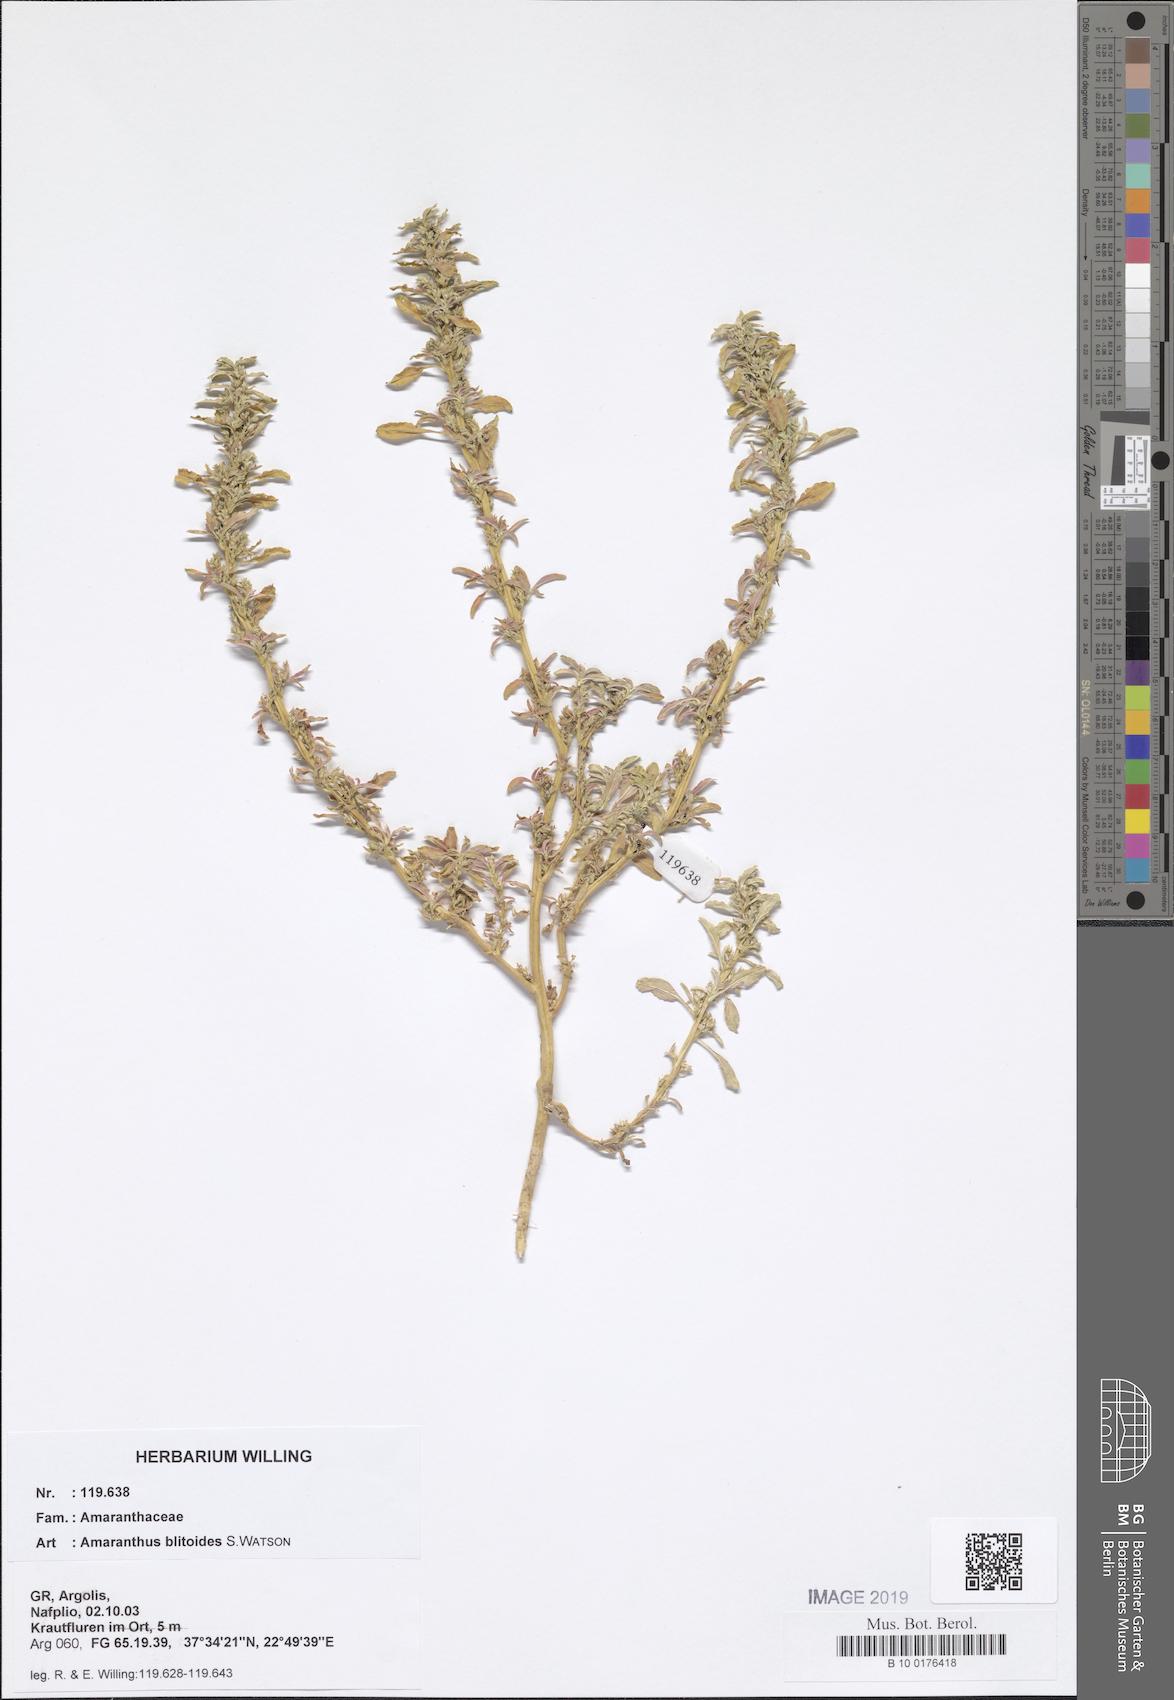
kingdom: Plantae
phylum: Tracheophyta
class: Magnoliopsida
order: Caryophyllales
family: Amaranthaceae
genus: Amaranthus
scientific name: Amaranthus blitoides
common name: Prostrate pigweed
